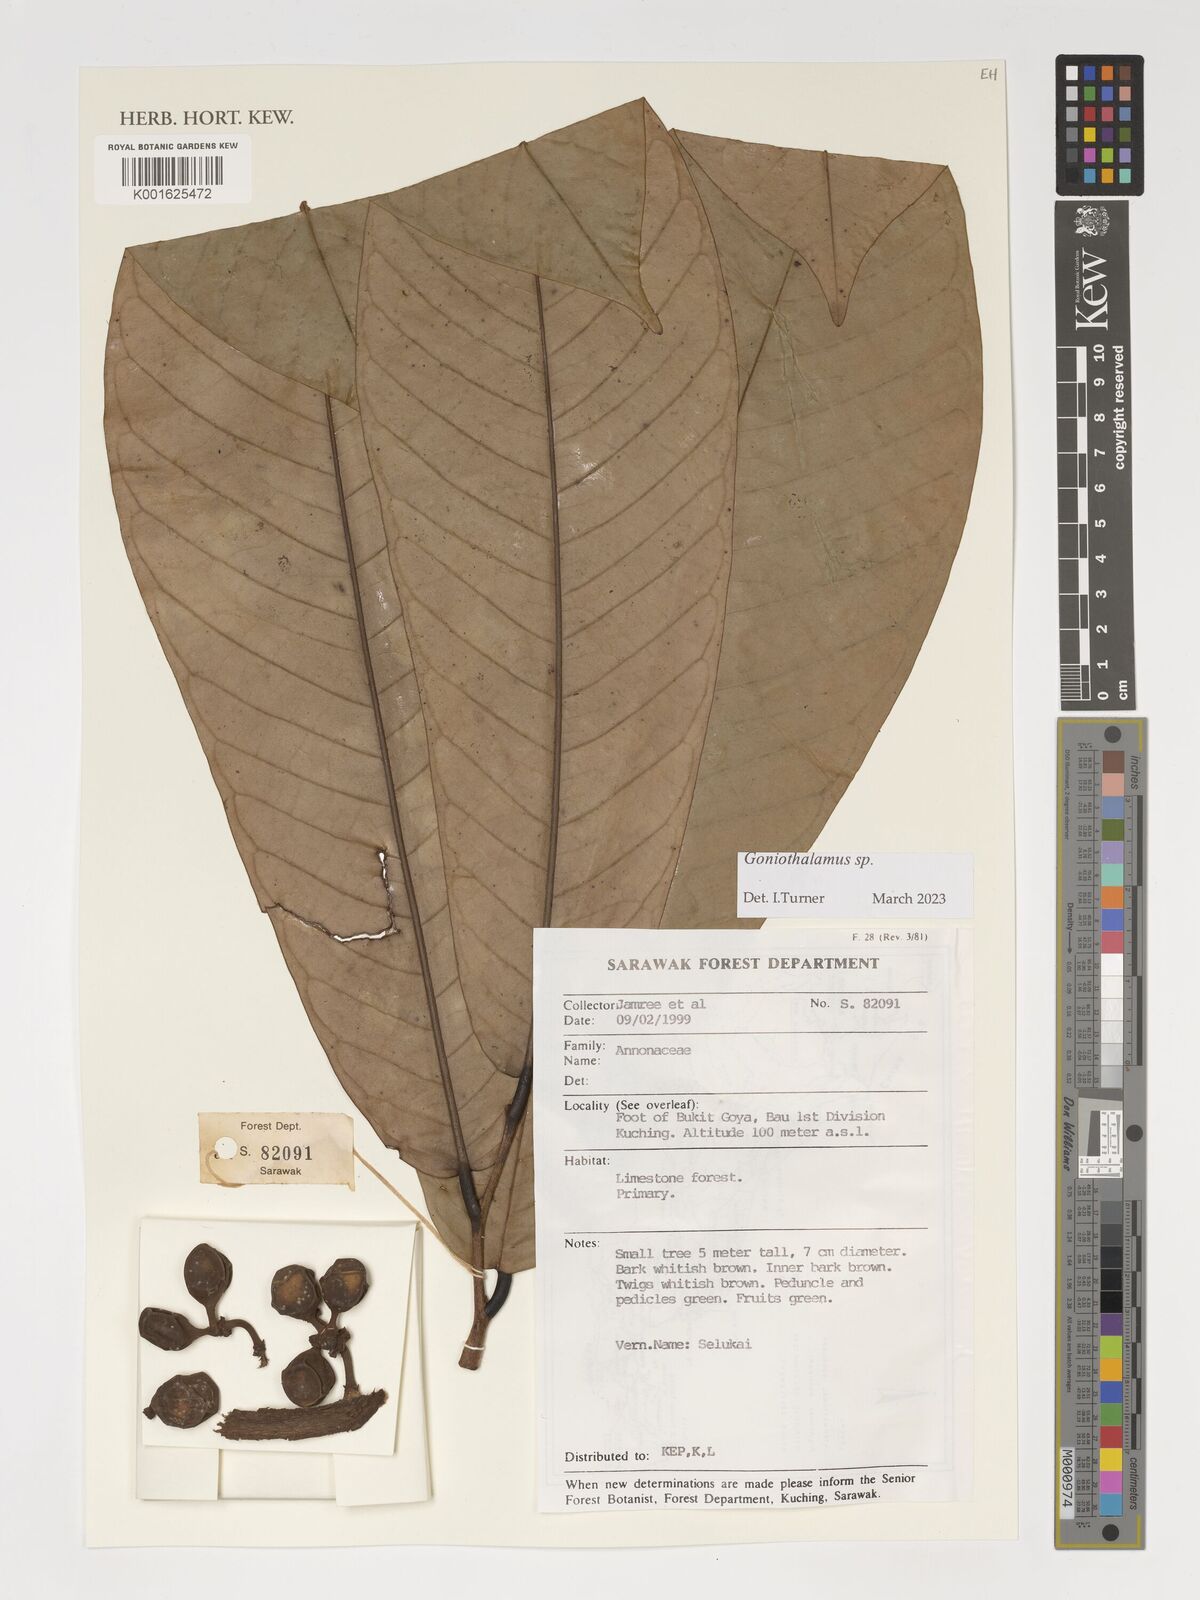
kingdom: Plantae
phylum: Tracheophyta
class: Magnoliopsida
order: Magnoliales
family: Annonaceae
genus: Goniothalamus
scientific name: Goniothalamus
